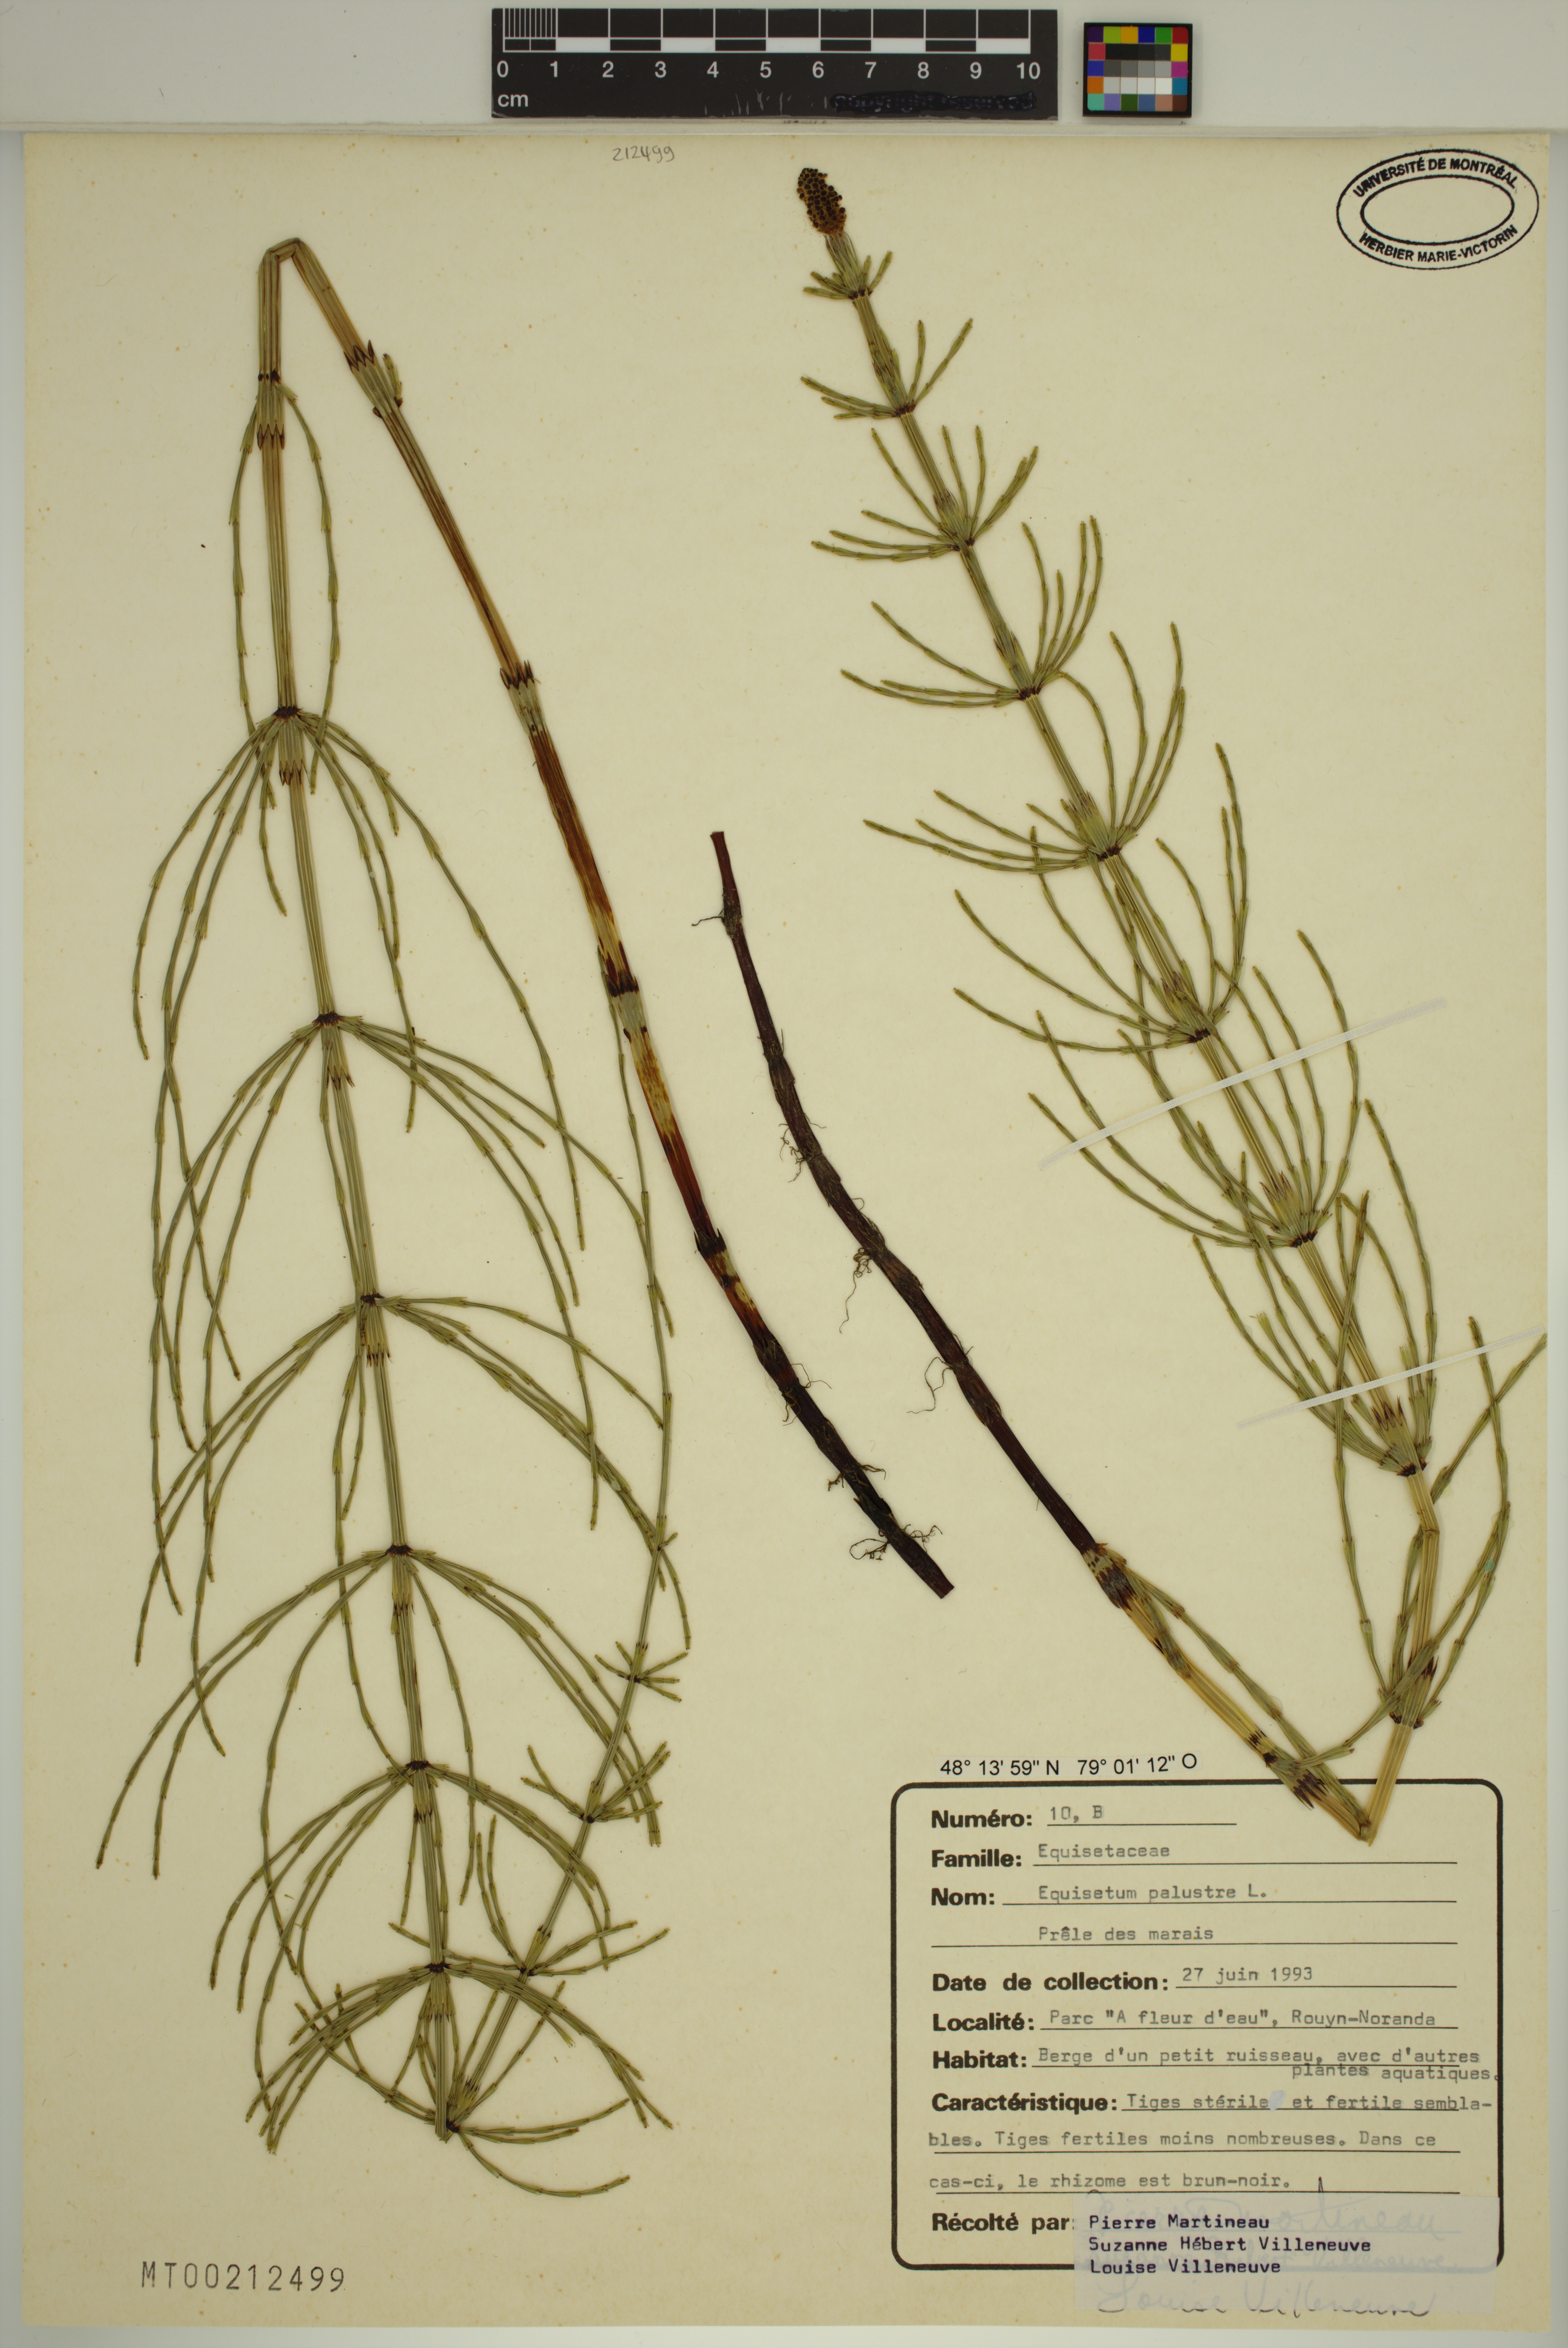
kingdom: Plantae
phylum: Tracheophyta
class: Polypodiopsida
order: Equisetales
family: Equisetaceae
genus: Equisetum
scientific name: Equisetum palustre
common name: Marsh horsetail
